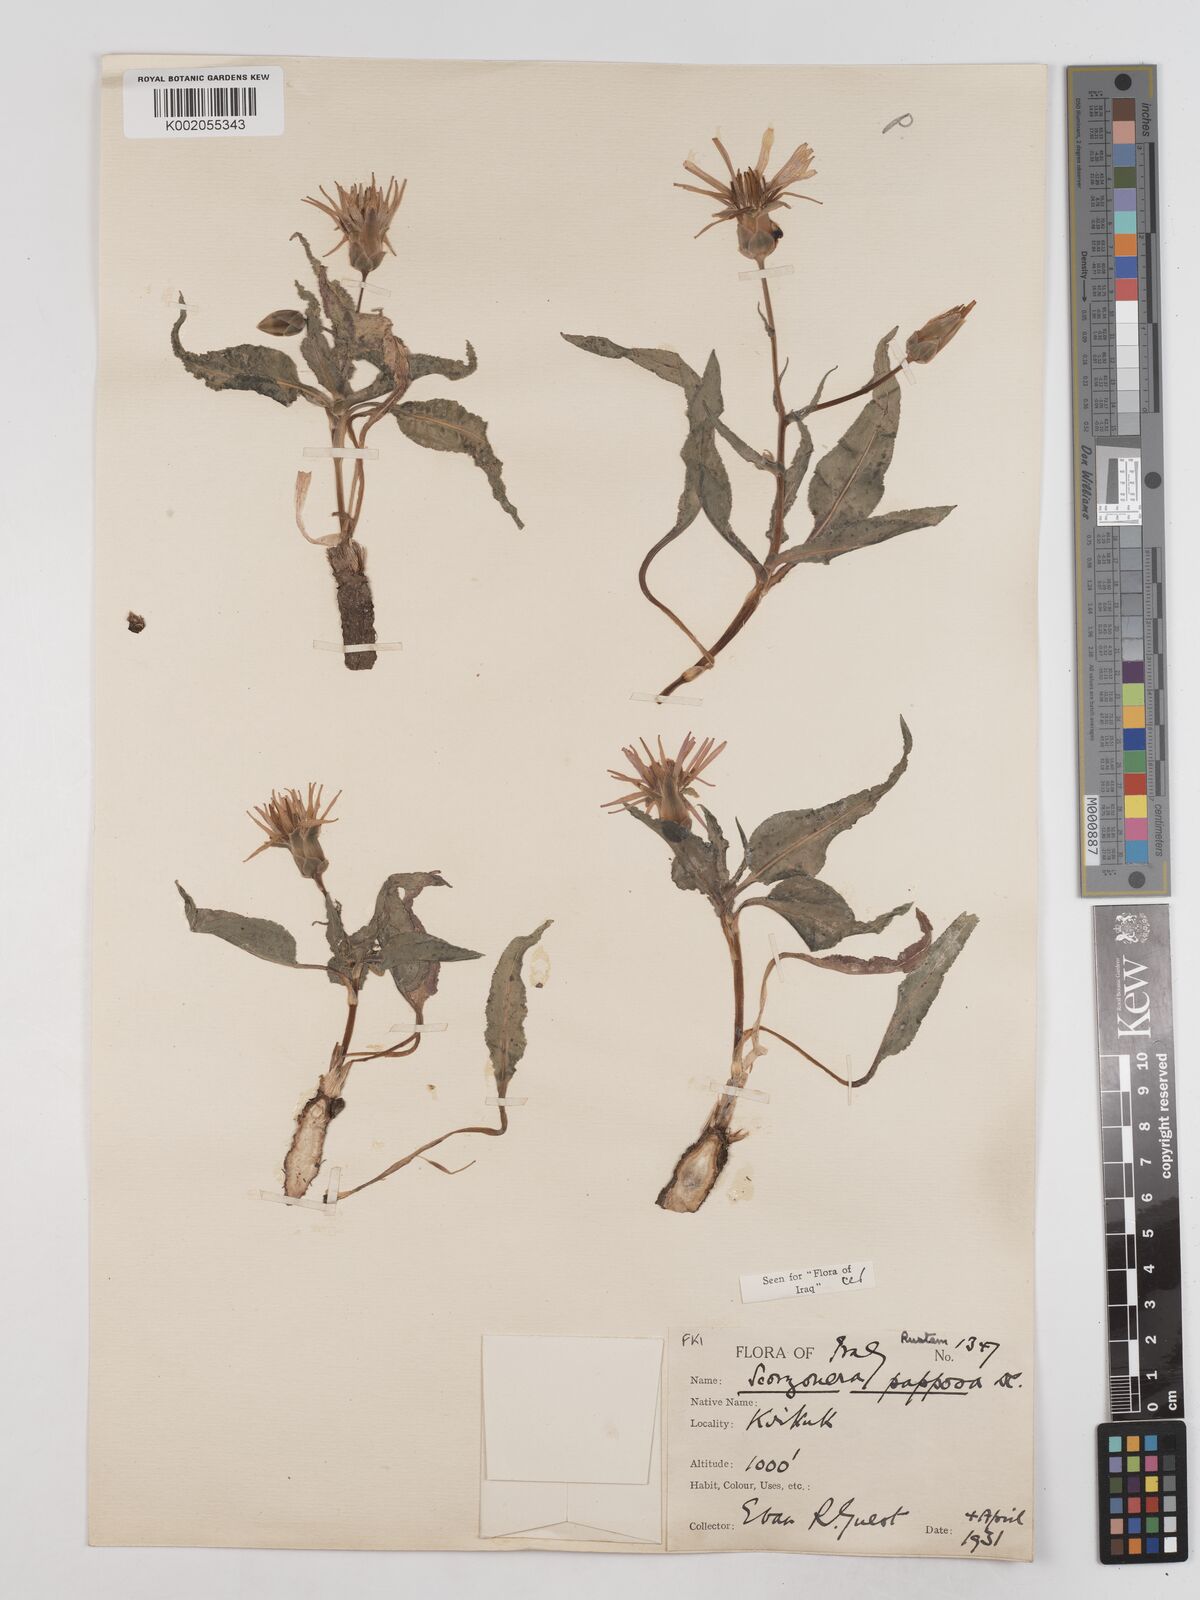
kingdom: Plantae
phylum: Tracheophyta
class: Magnoliopsida
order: Asterales
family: Asteraceae
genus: Pseudopodospermum
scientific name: Pseudopodospermum papposum
